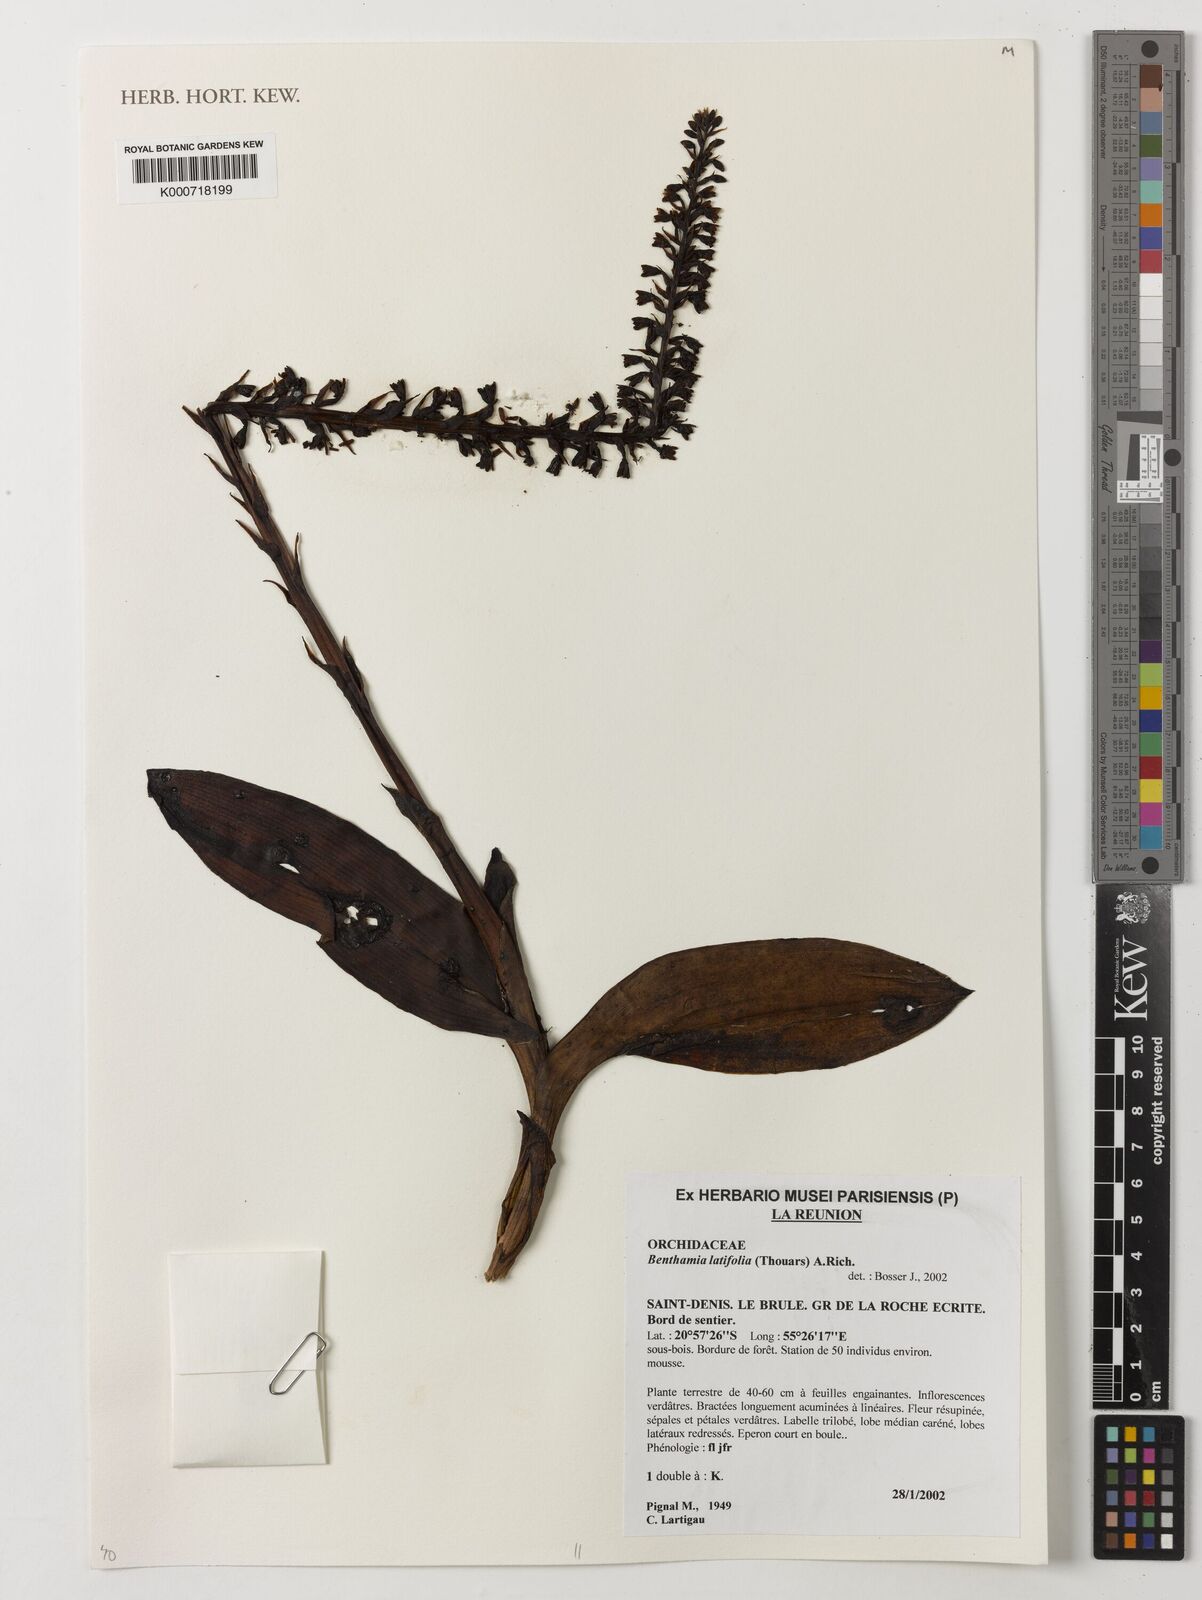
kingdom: Plantae
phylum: Tracheophyta
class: Liliopsida
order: Asparagales
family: Orchidaceae
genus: Benthamia
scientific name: Benthamia chlorantha
